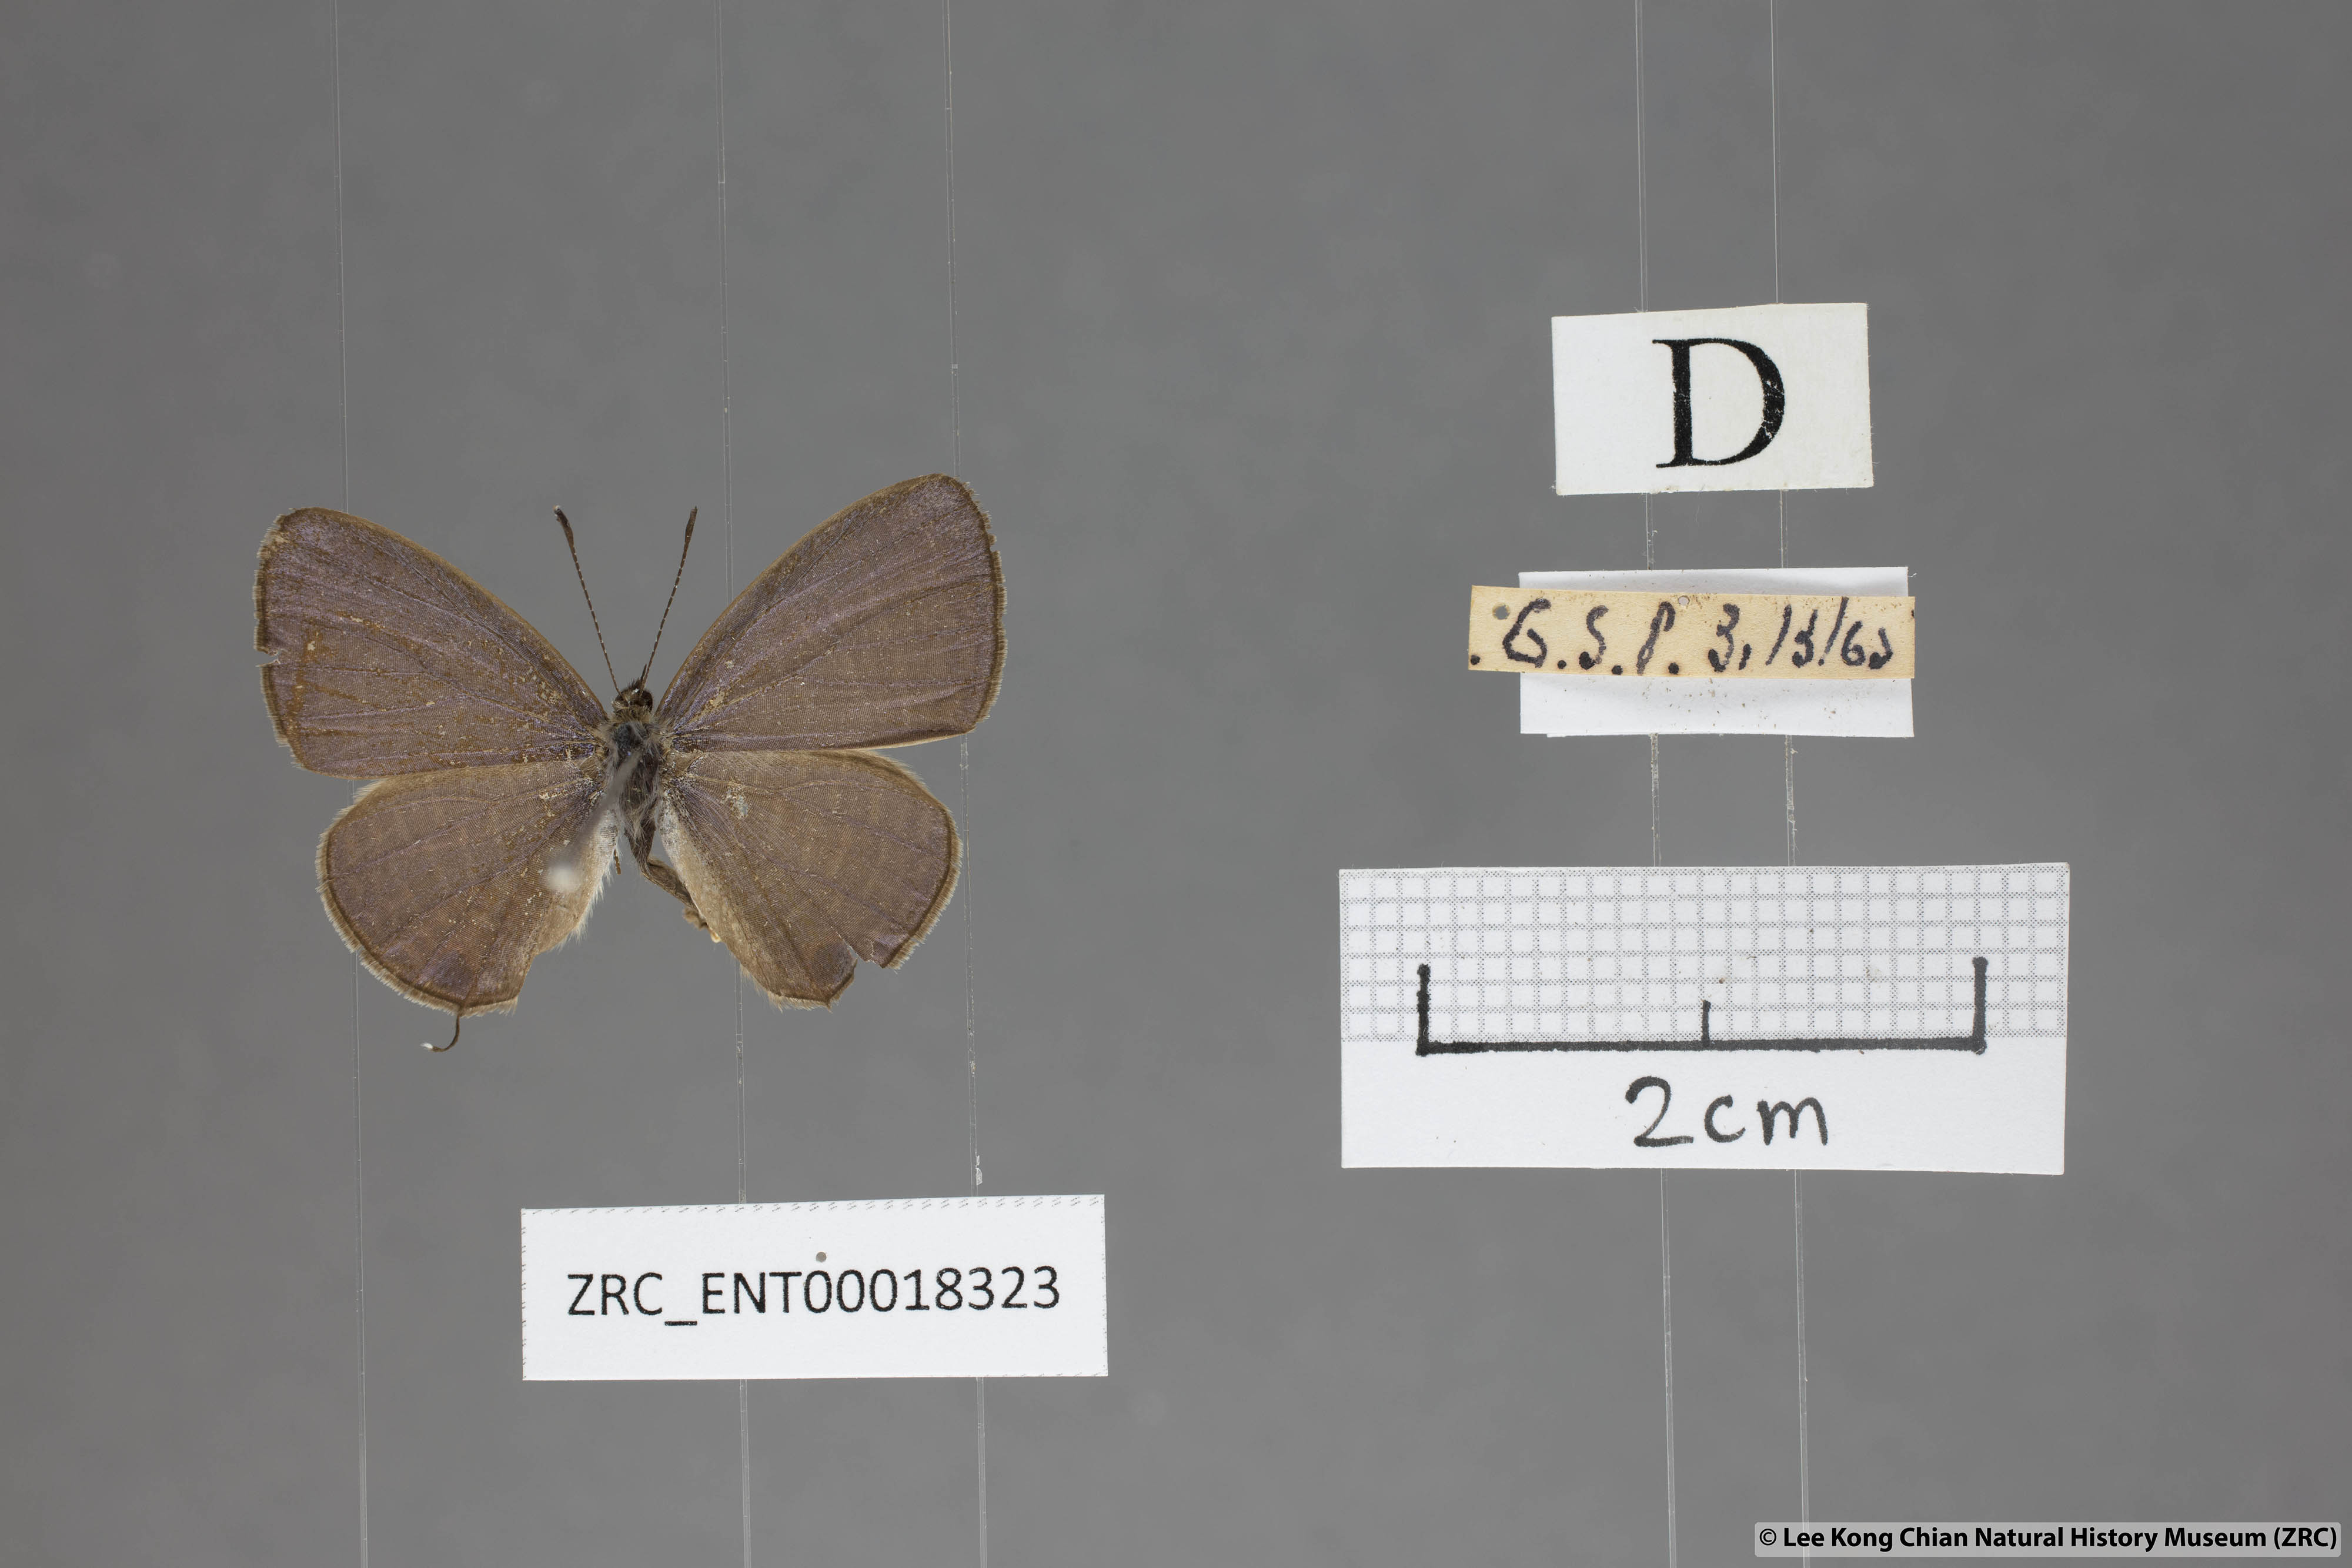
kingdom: Animalia
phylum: Arthropoda
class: Insecta
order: Lepidoptera
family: Lycaenidae
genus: Nacaduba
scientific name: Nacaduba beroe
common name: Opaque sixline blue
